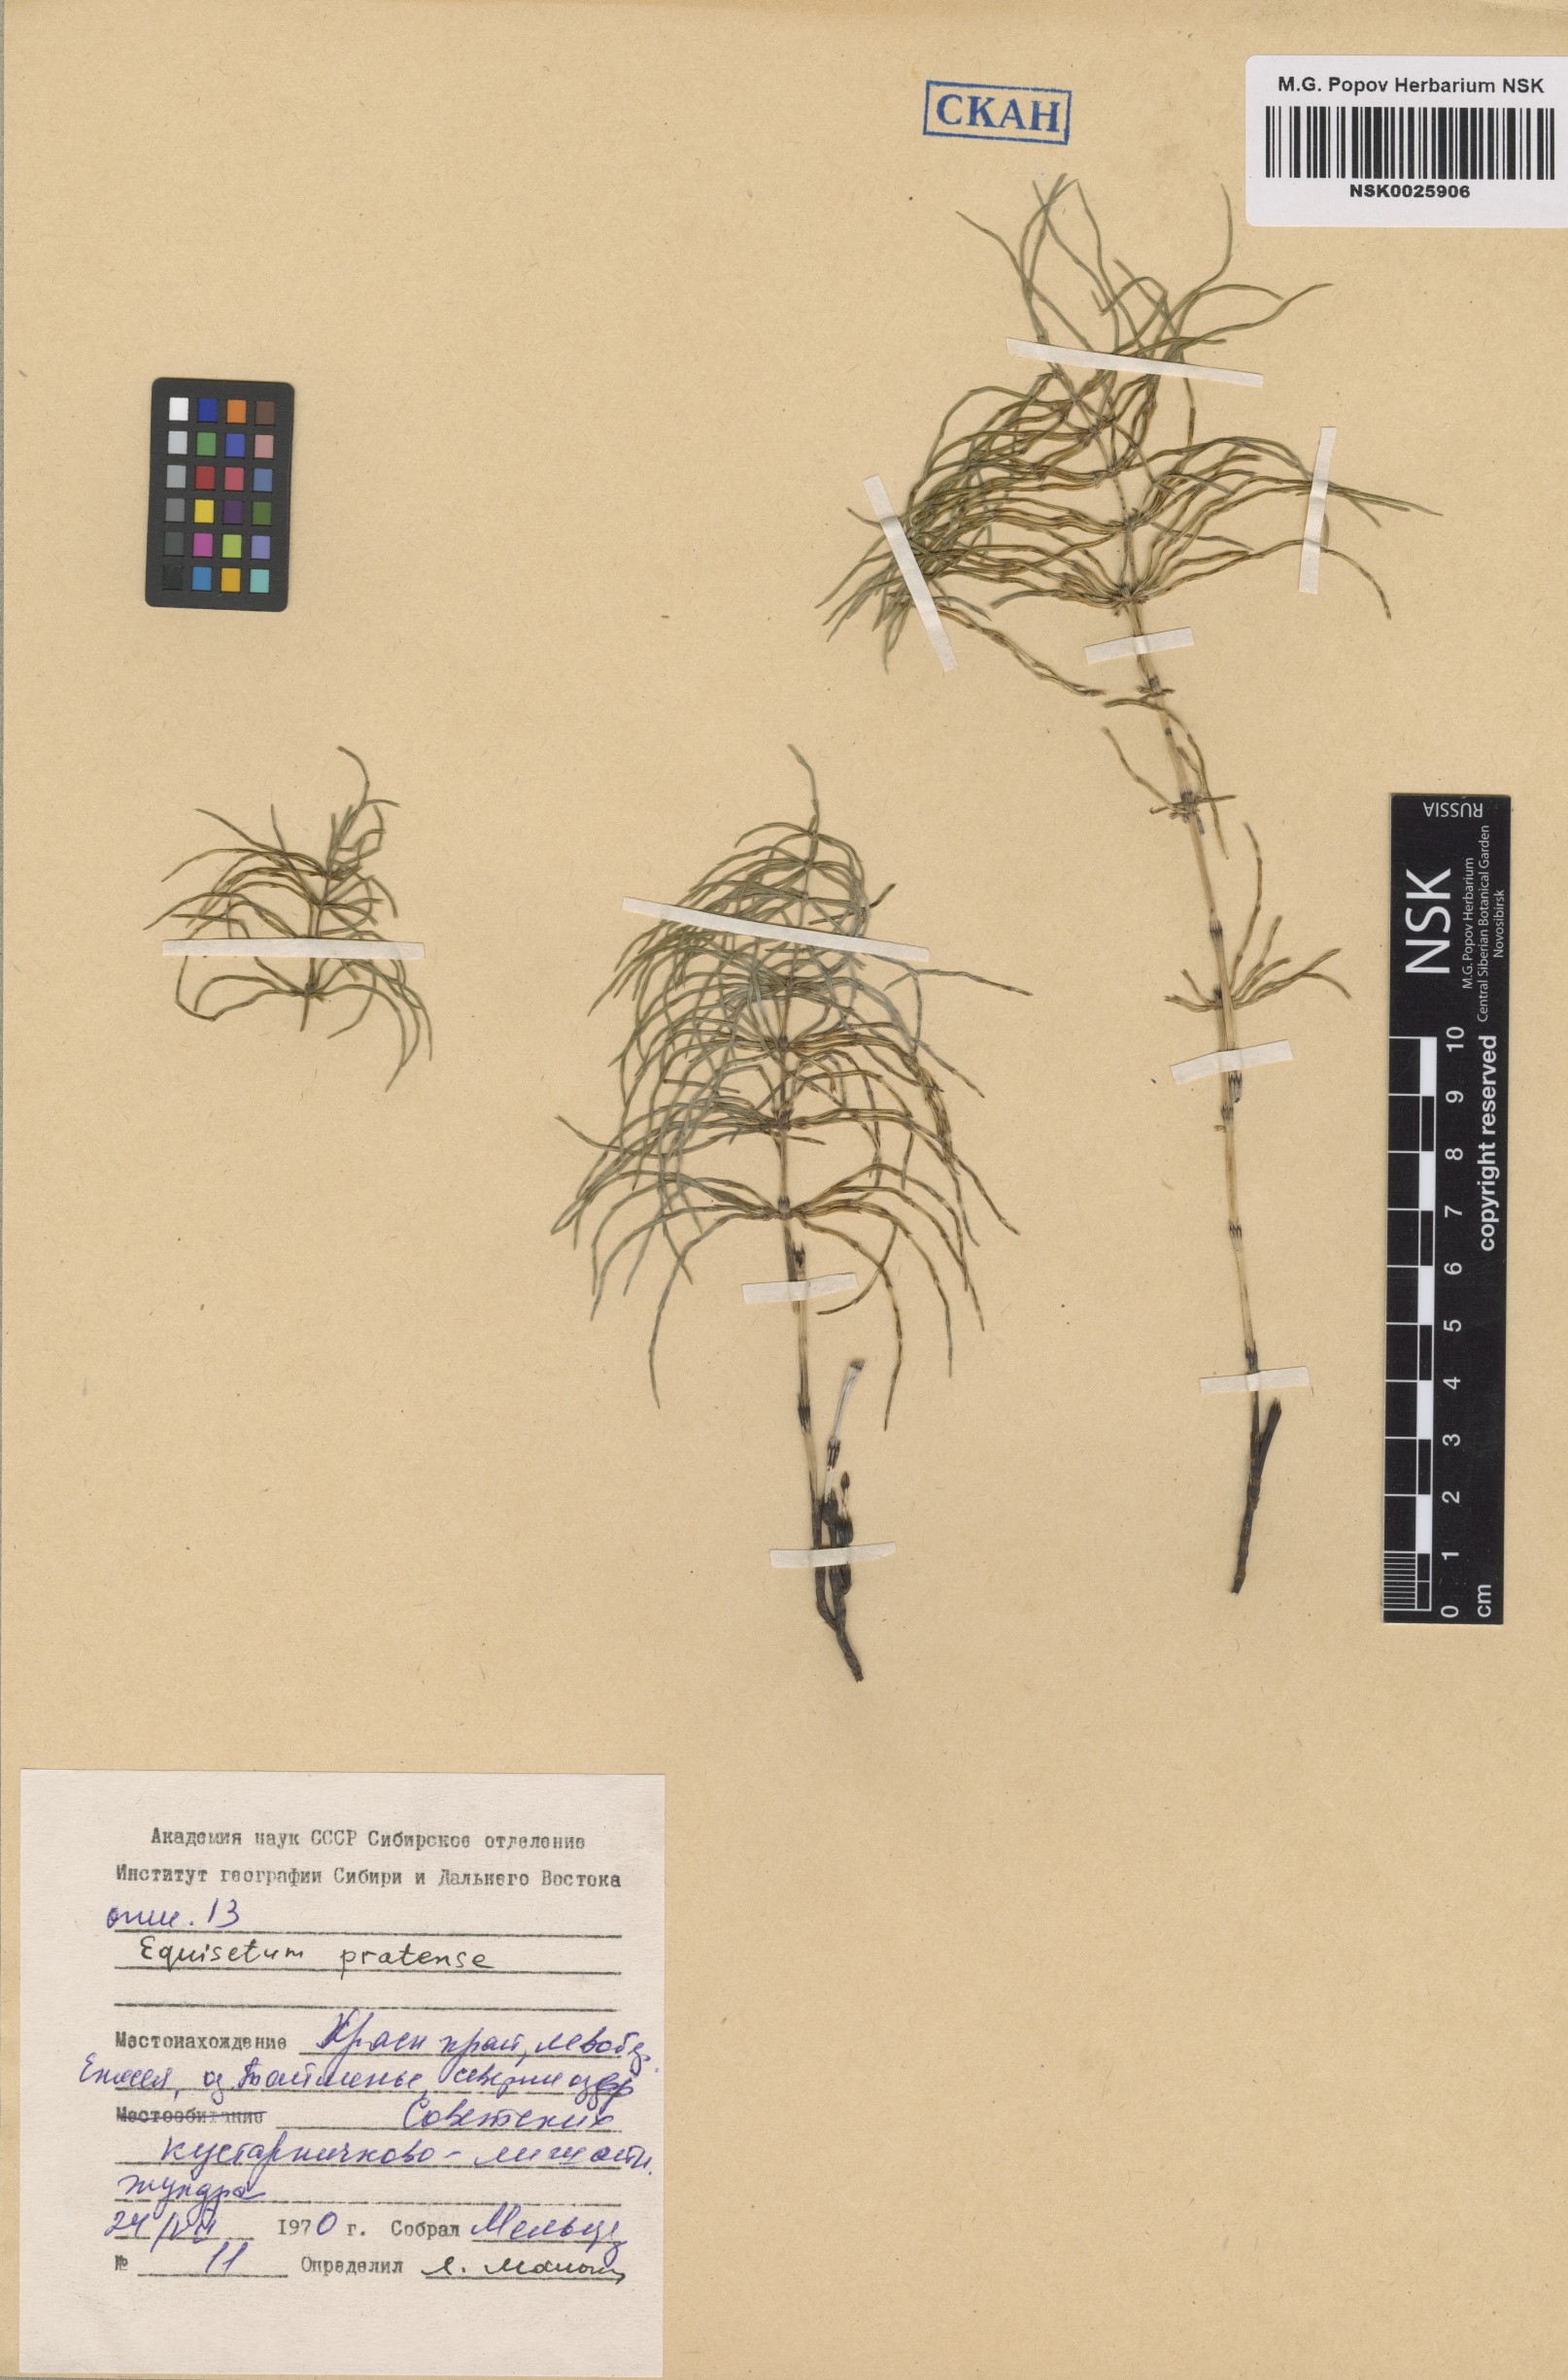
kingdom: Plantae
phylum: Tracheophyta
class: Polypodiopsida
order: Equisetales
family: Equisetaceae
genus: Equisetum
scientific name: Equisetum pratense
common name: Meadow horsetail
